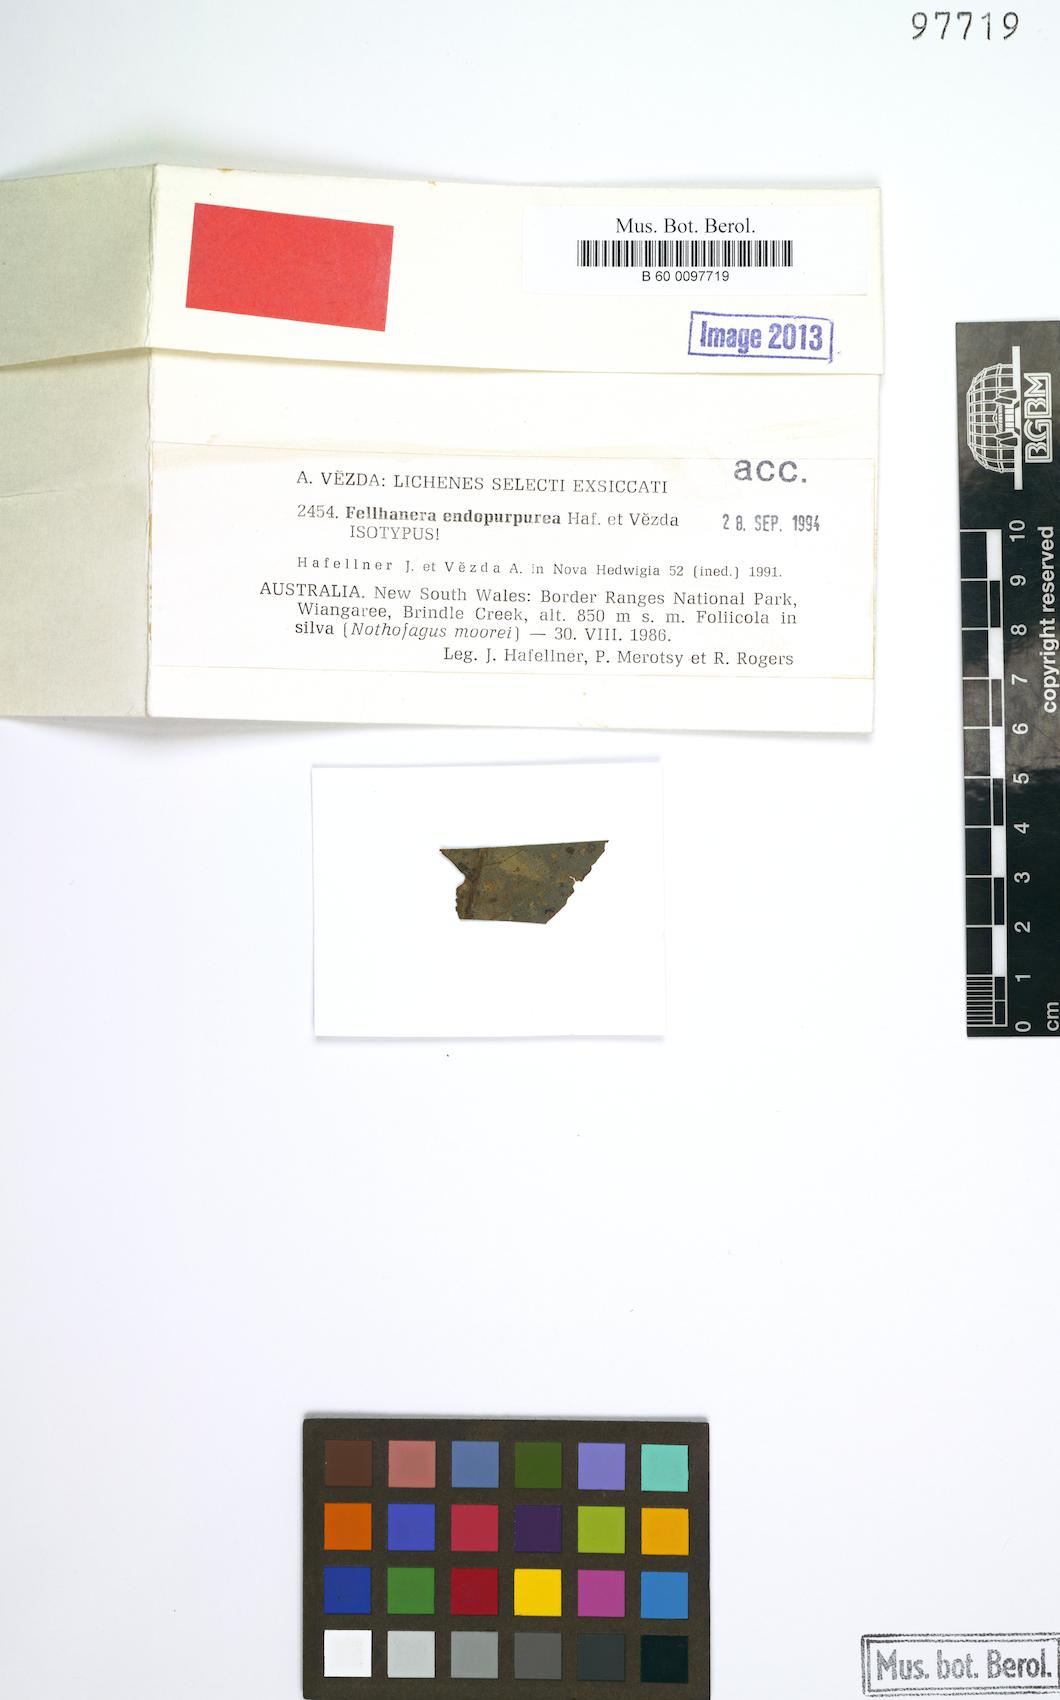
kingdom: Fungi
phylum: Ascomycota
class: Lecanoromycetes
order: Lecanorales
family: Byssolomataceae
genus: Fellhanera
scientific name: Fellhanera endopurpurea
